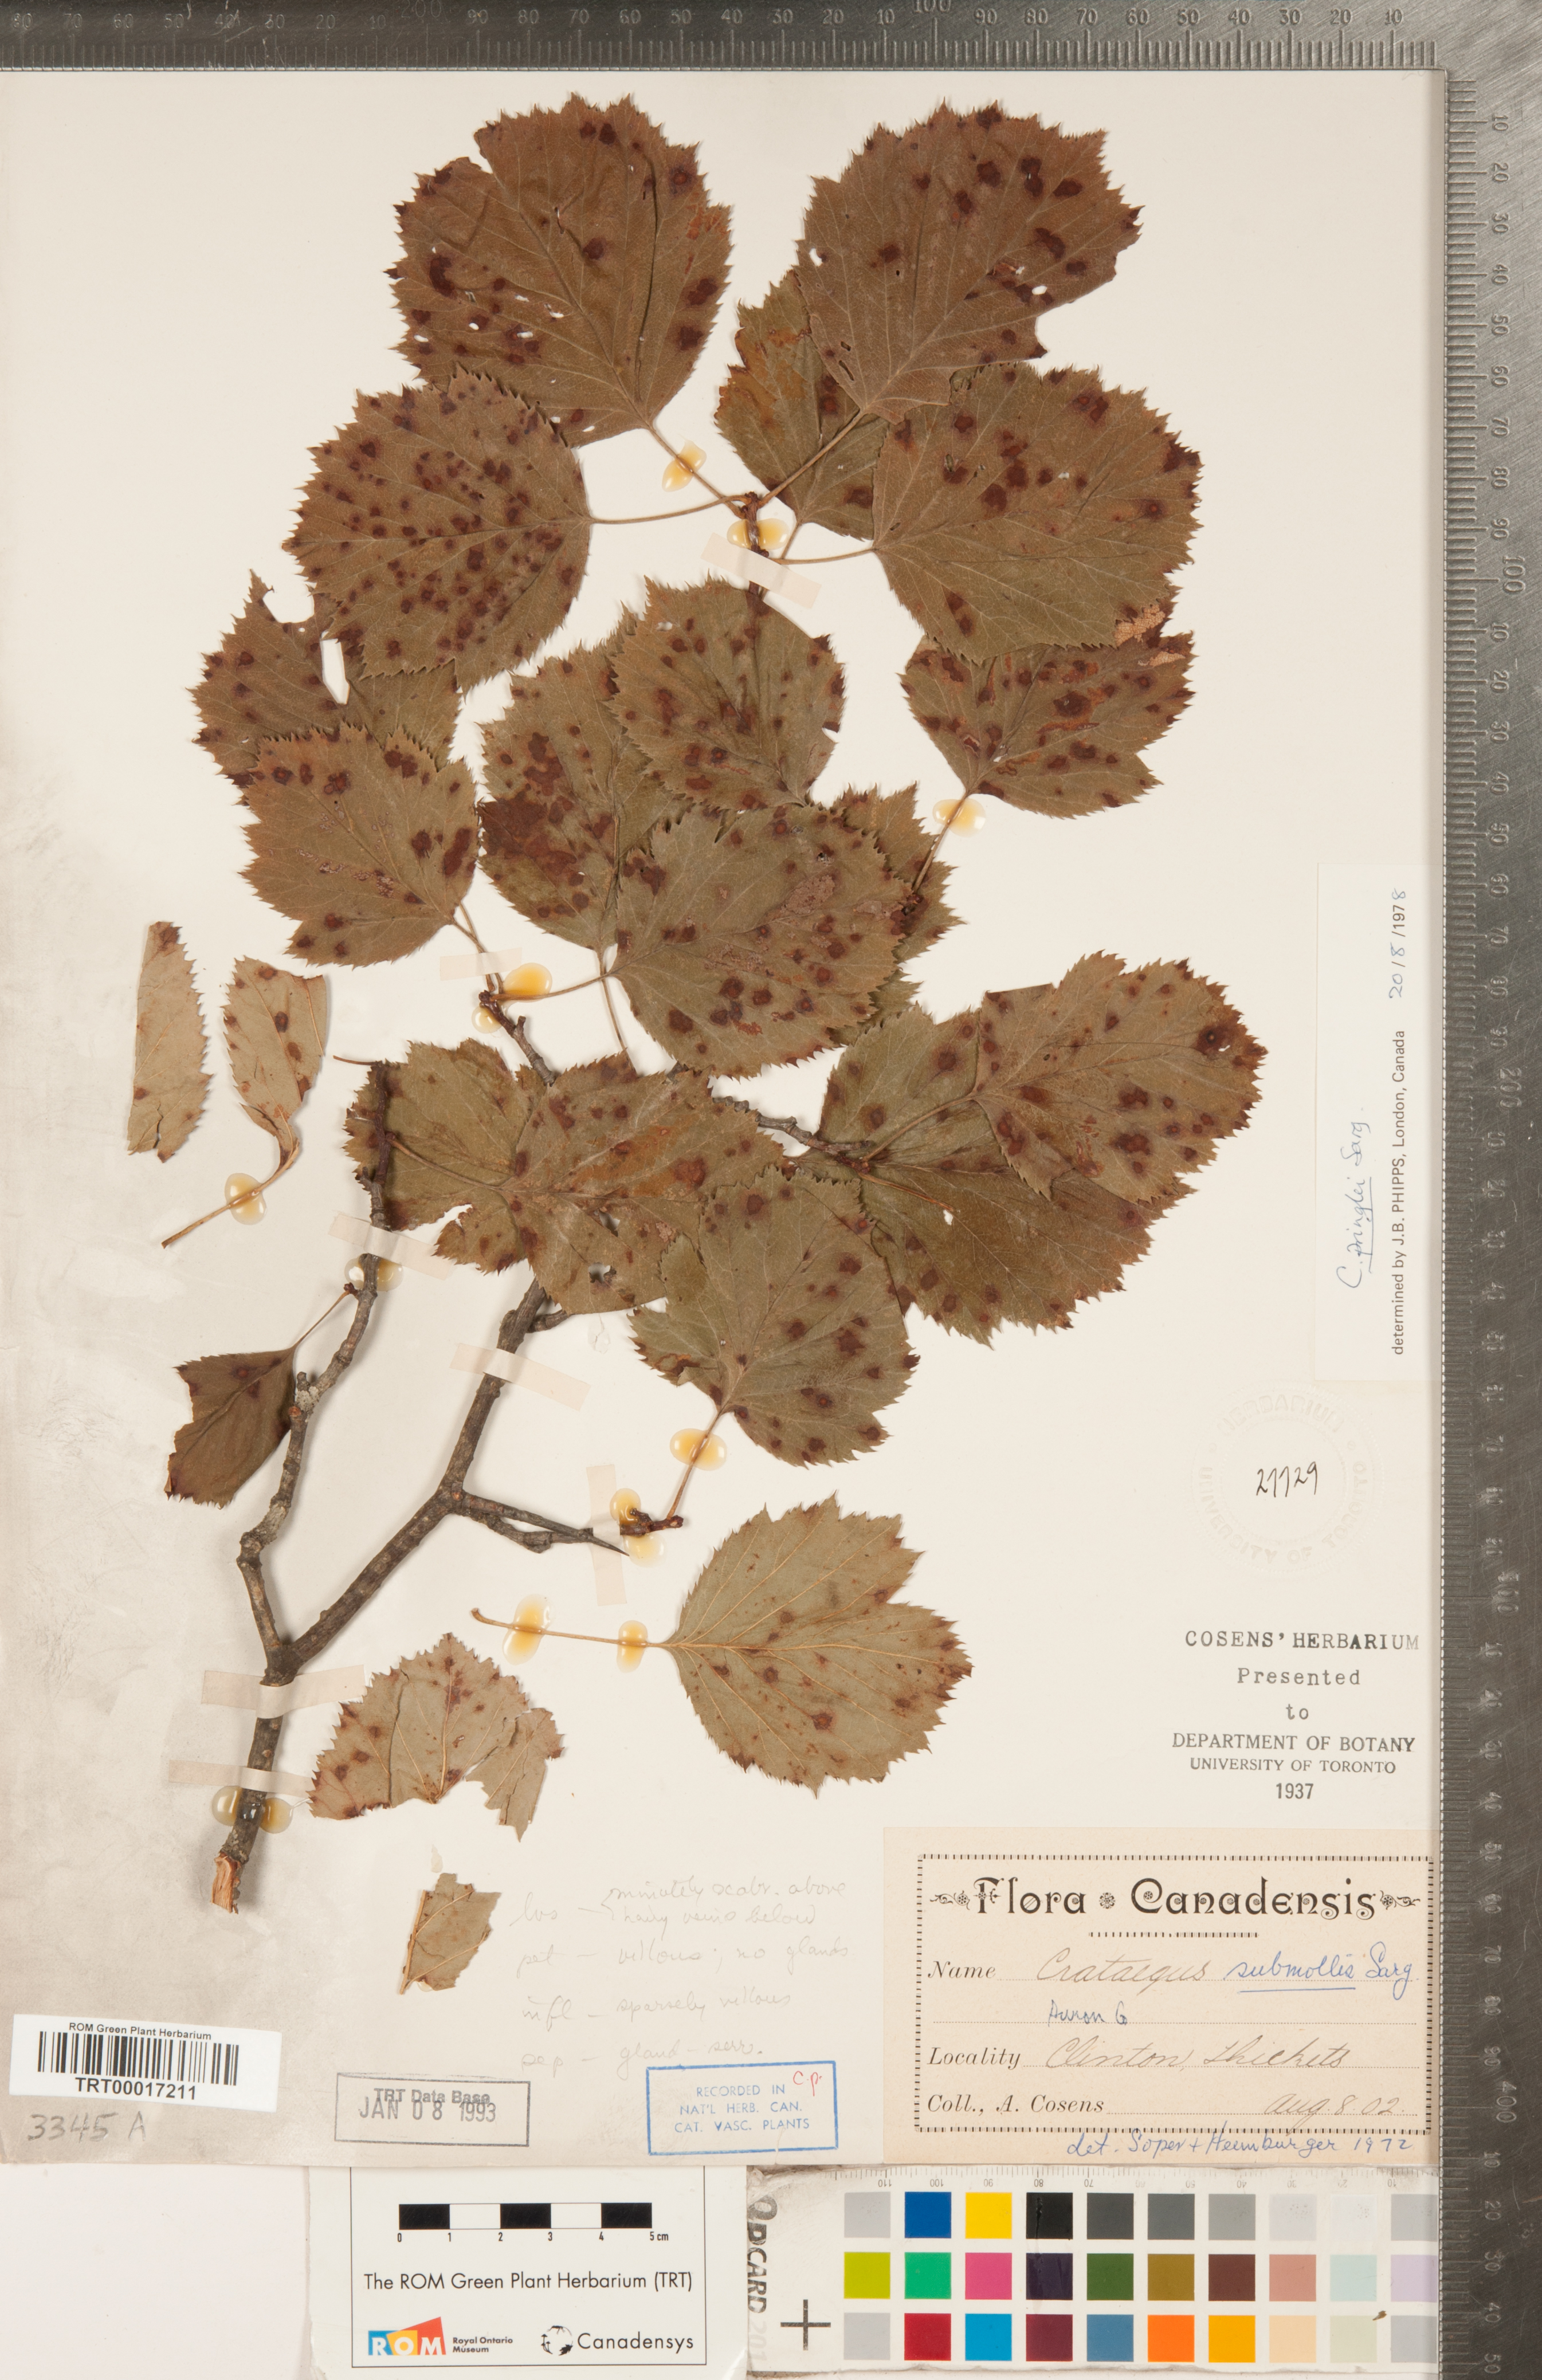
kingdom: Plantae
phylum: Tracheophyta
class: Magnoliopsida
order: Rosales
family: Rosaceae
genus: Crataegus
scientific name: Crataegus coccinea
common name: Scarlet hawthorn
